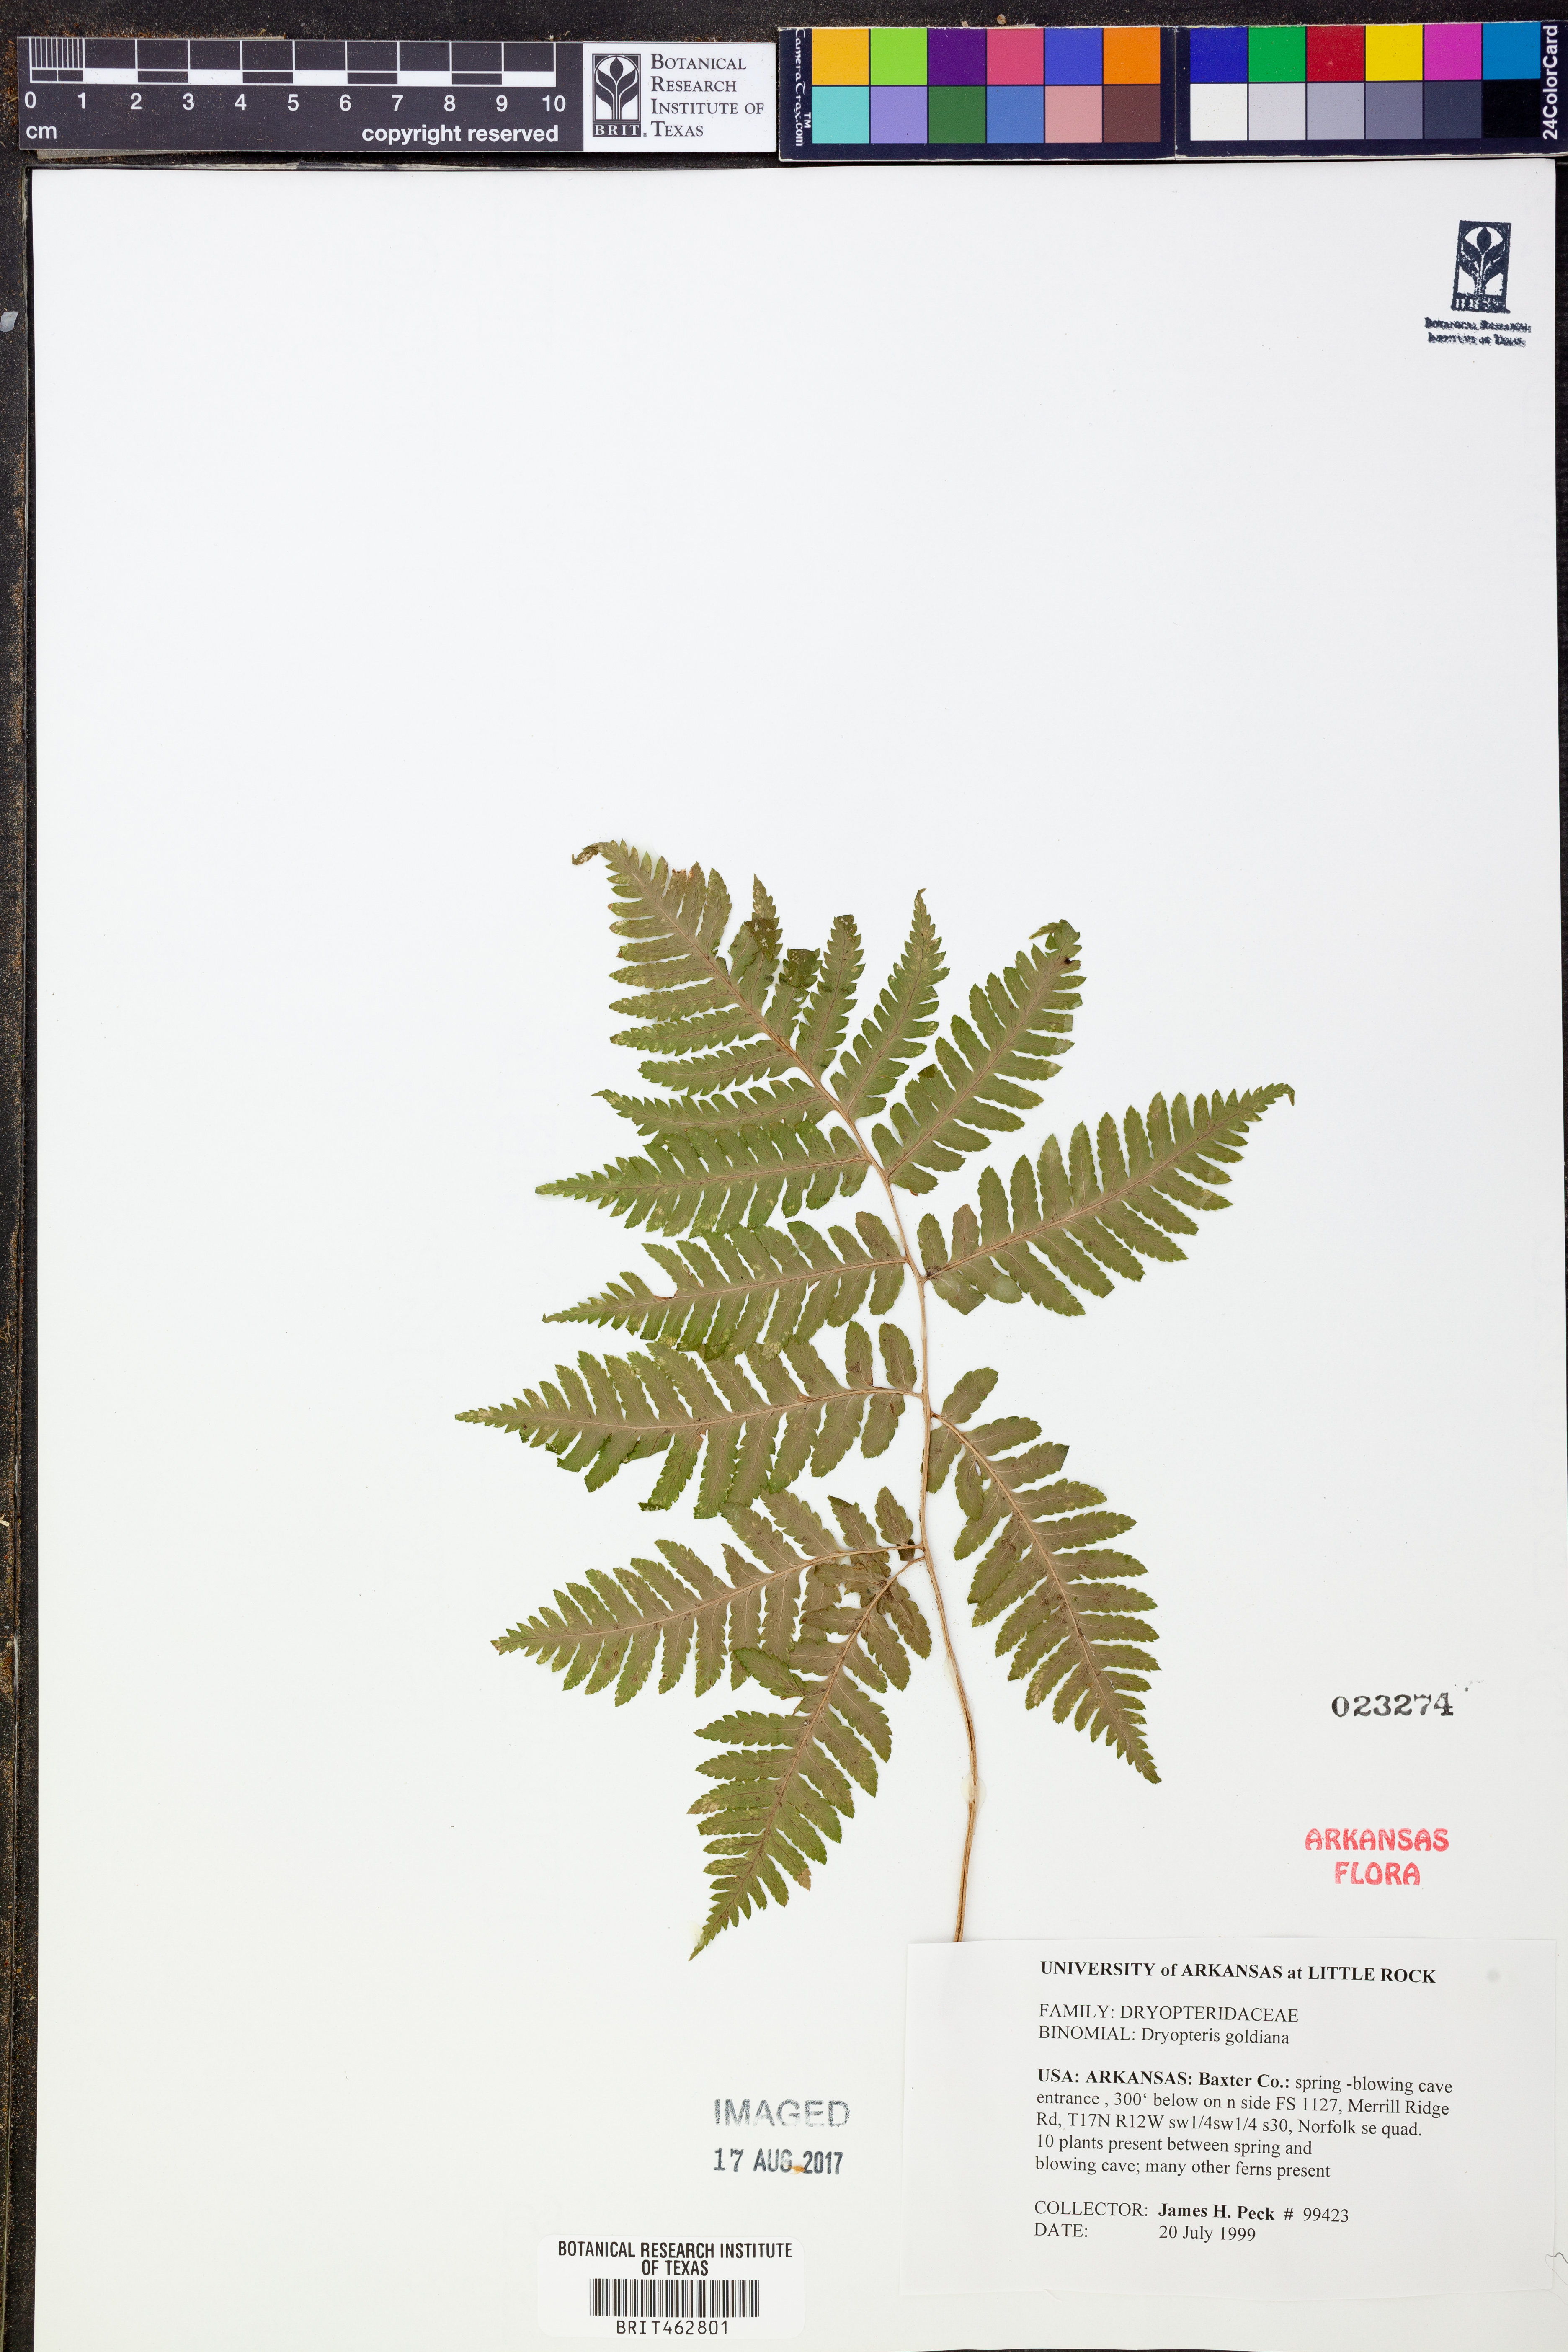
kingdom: Plantae
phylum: Tracheophyta
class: Polypodiopsida
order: Polypodiales
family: Dryopteridaceae
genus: Dryopteris
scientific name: Dryopteris goeldiana
